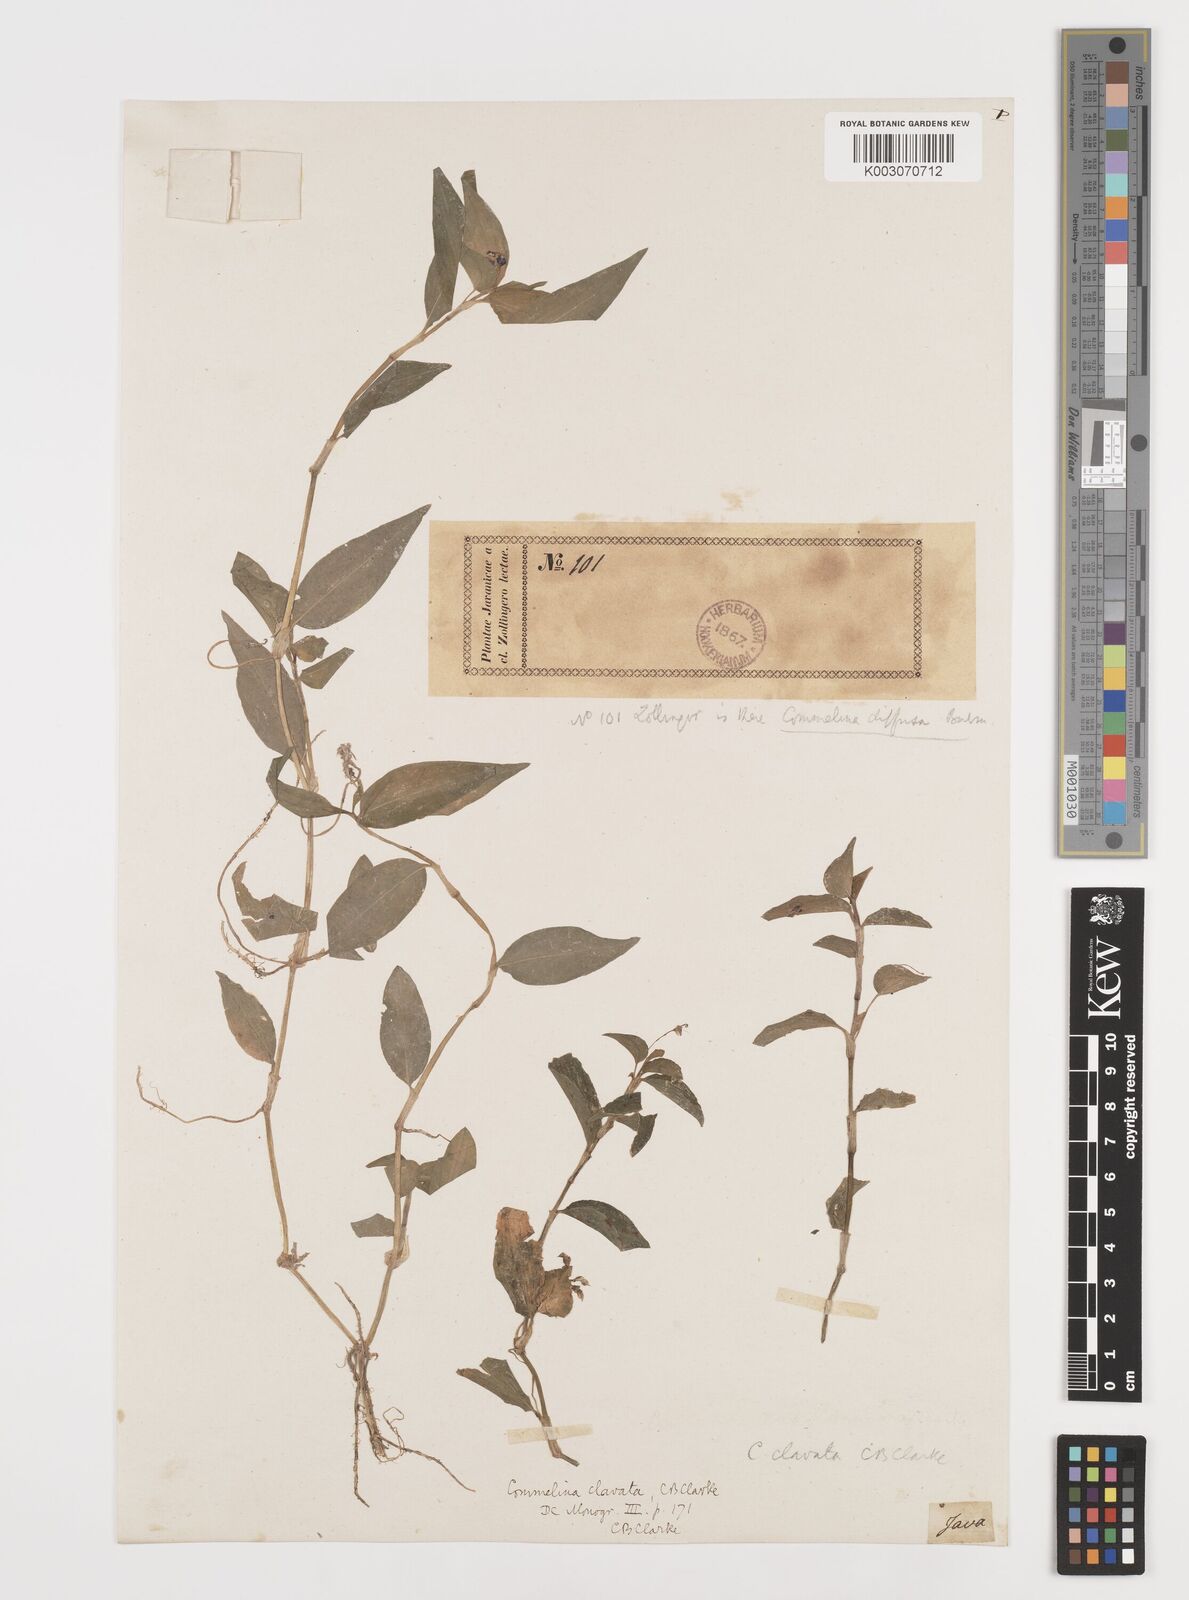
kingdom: Plantae
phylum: Tracheophyta
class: Liliopsida
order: Commelinales
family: Commelinaceae
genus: Commelina
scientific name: Commelina clavata
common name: Willow leaved dayflower
